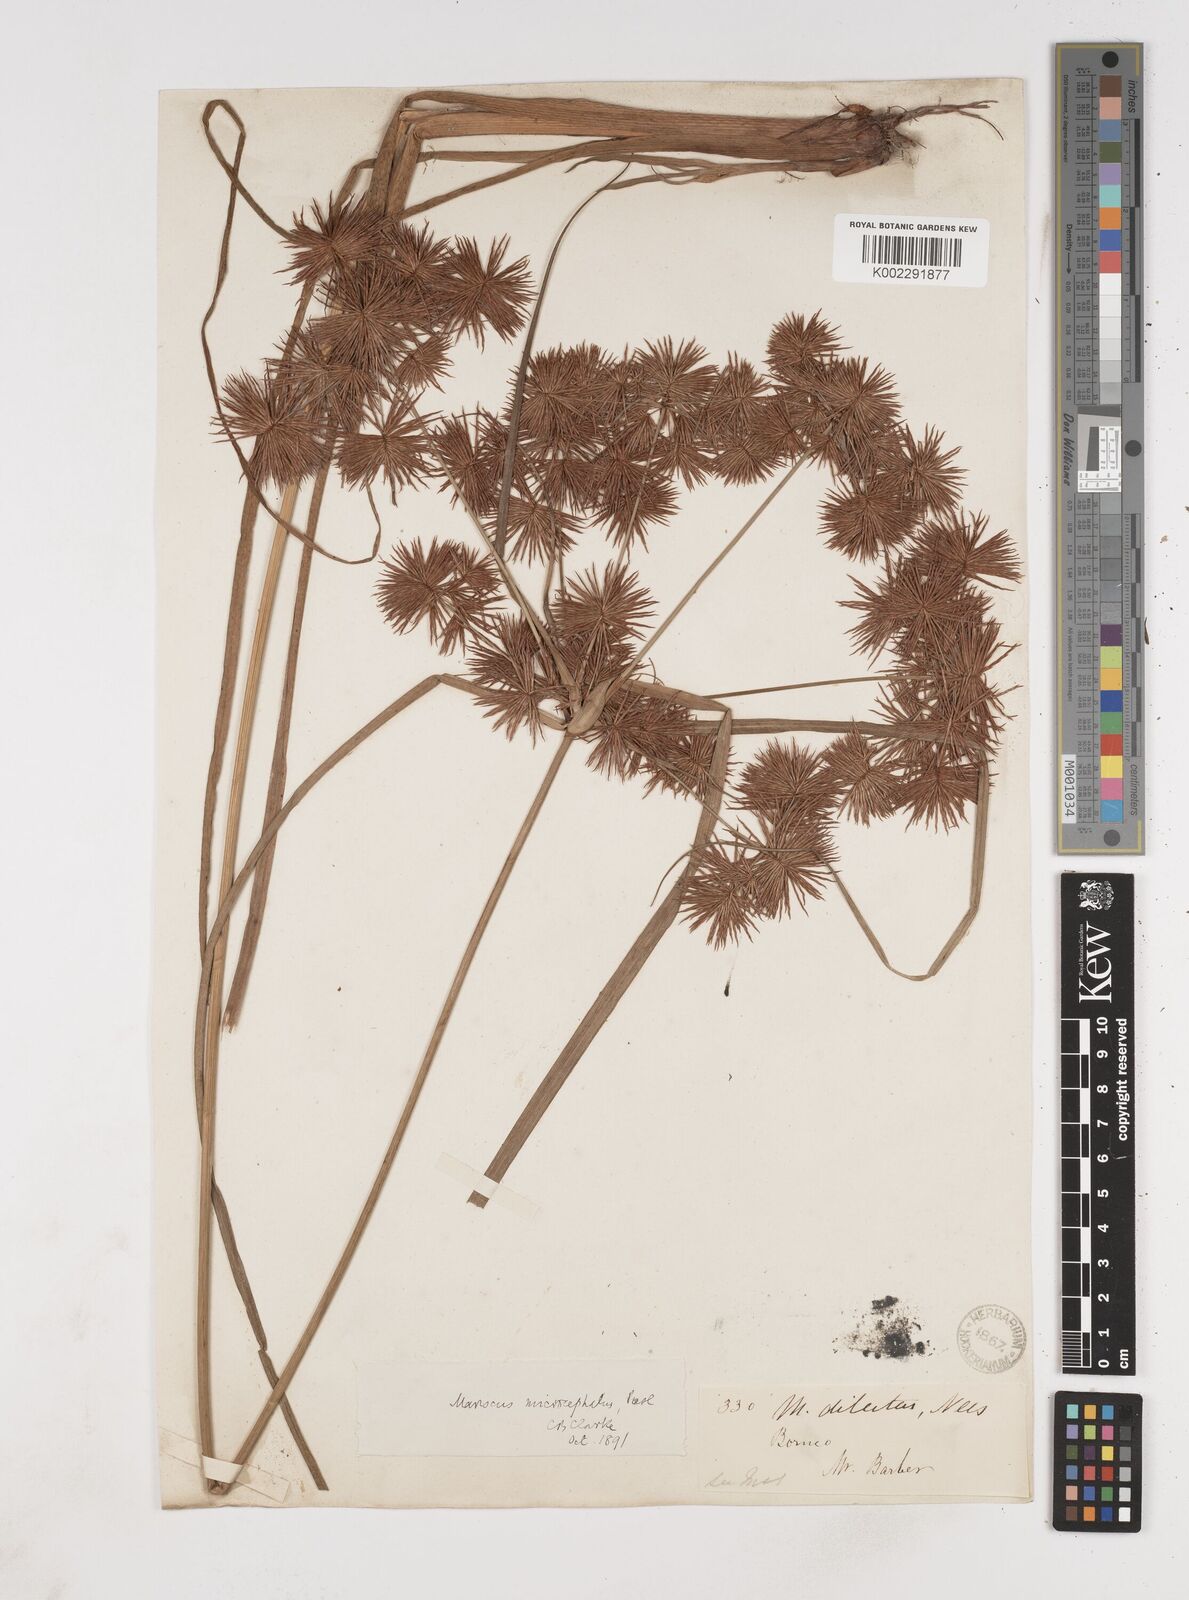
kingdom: Plantae
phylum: Tracheophyta
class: Liliopsida
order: Poales
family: Cyperaceae
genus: Cyperus
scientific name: Cyperus compactus
